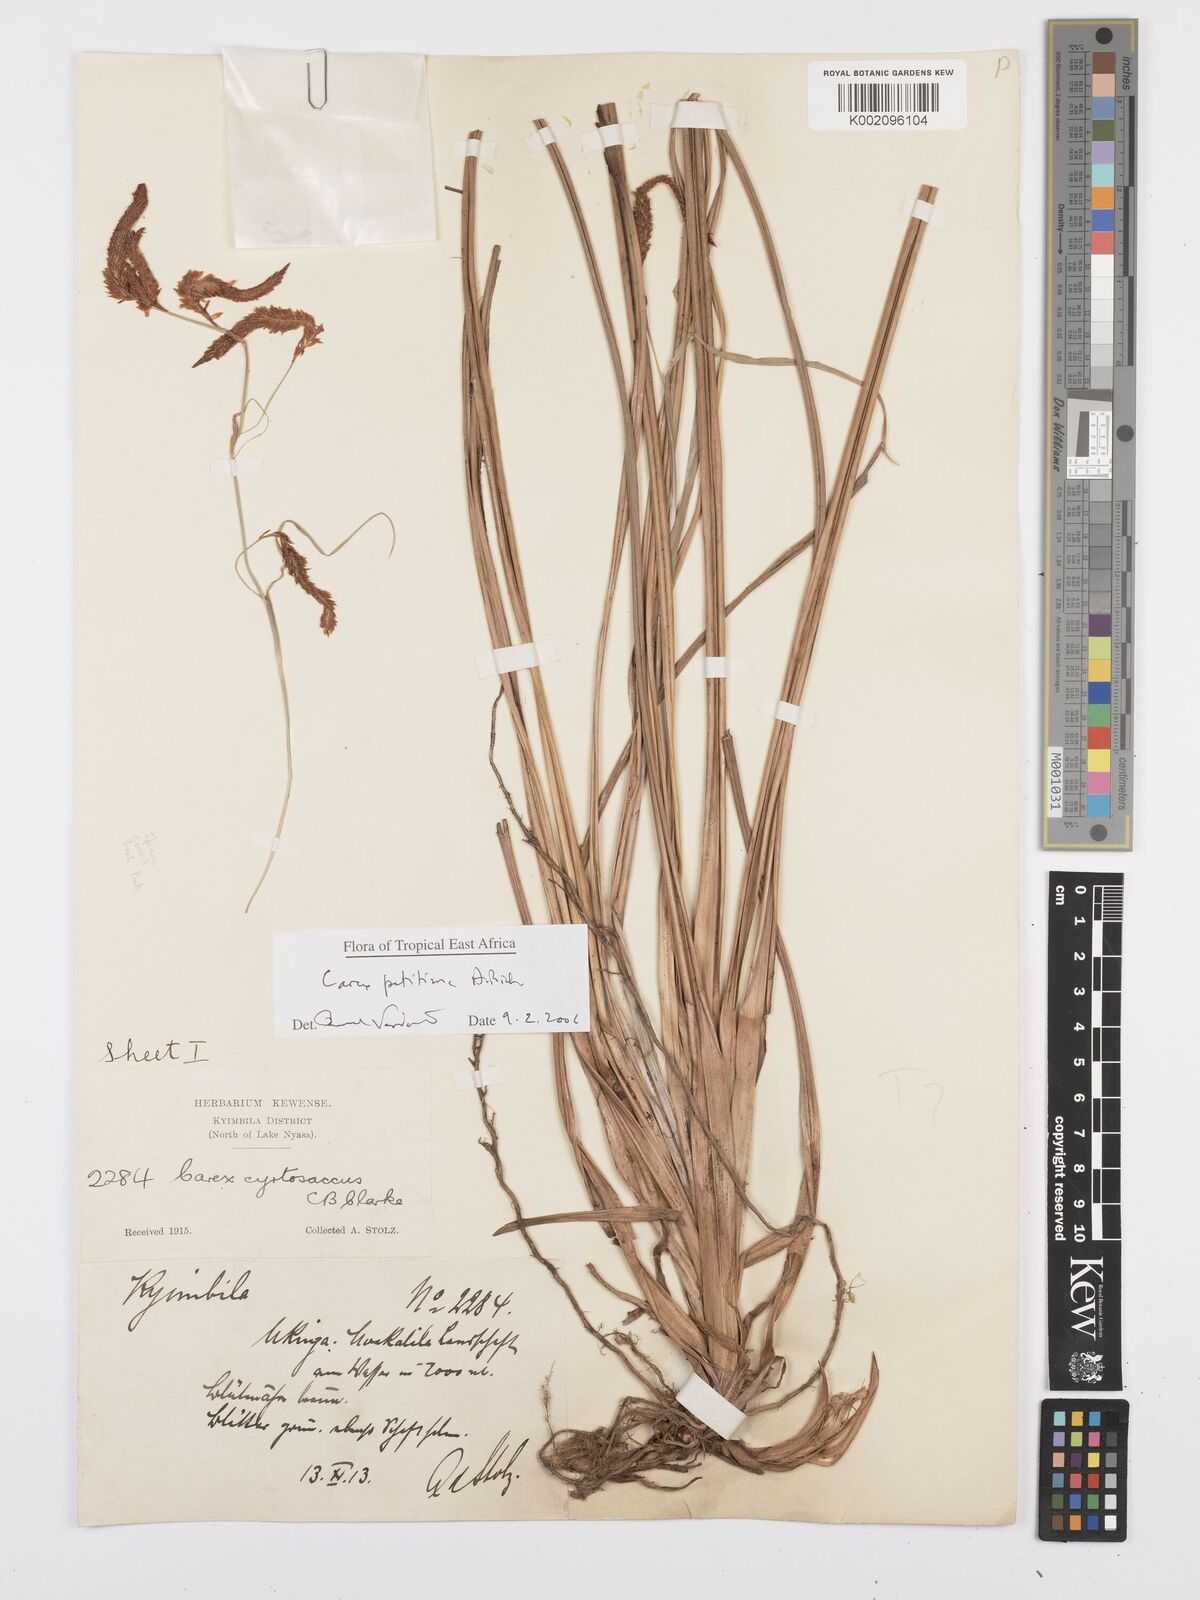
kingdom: Plantae
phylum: Tracheophyta
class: Liliopsida
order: Poales
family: Cyperaceae
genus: Carex
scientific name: Carex petitiana
